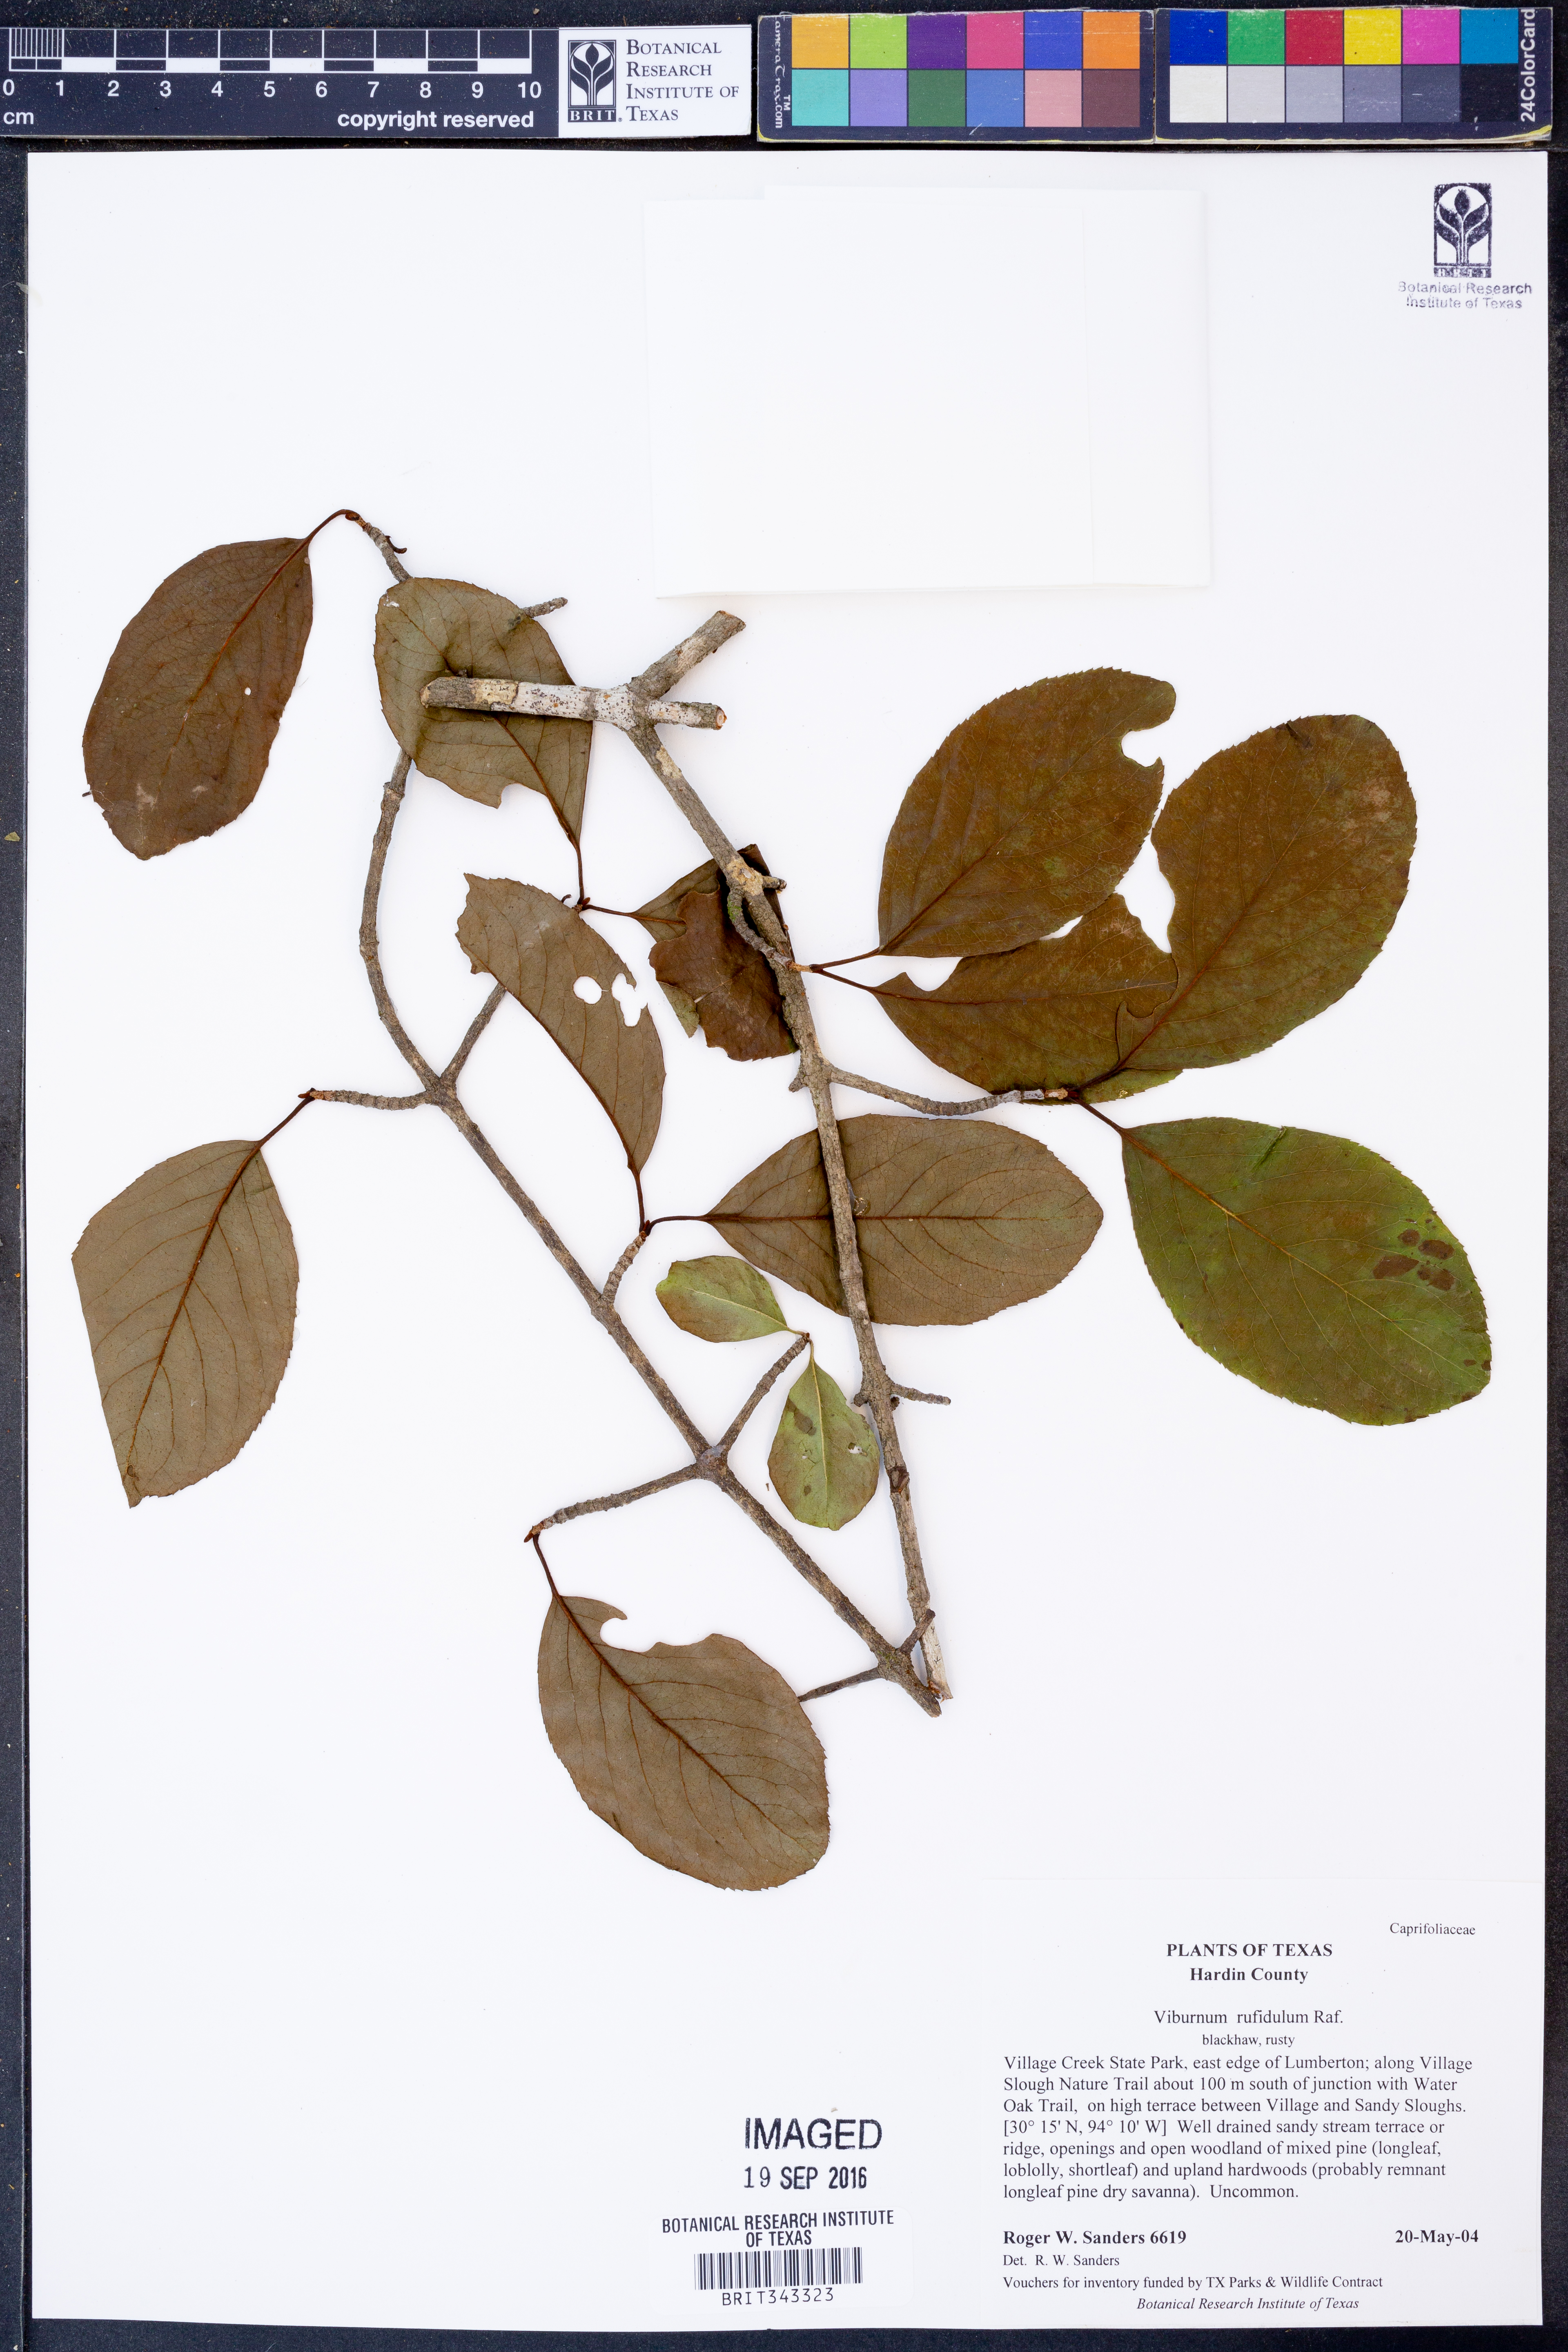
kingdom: Plantae
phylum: Tracheophyta
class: Magnoliopsida
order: Dipsacales
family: Viburnaceae
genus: Viburnum
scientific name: Viburnum rufidulum
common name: Blue haw
